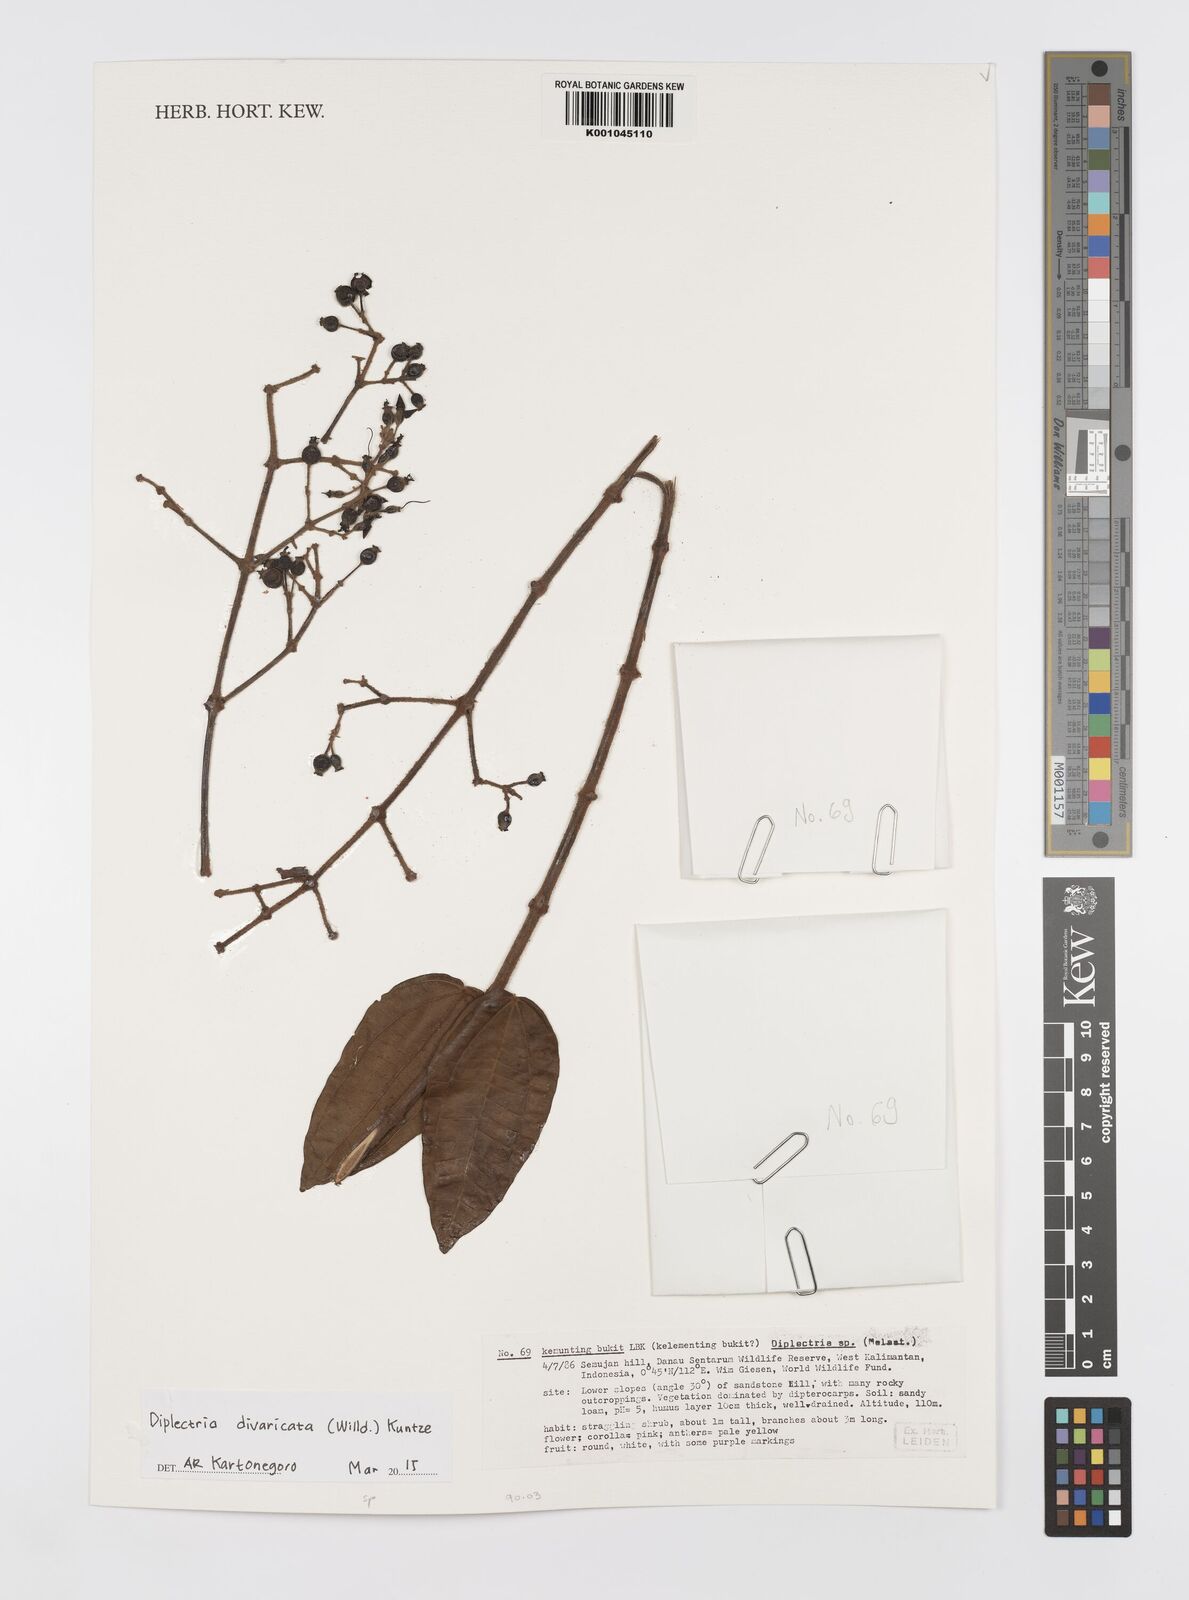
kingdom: Plantae
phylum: Tracheophyta
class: Magnoliopsida
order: Myrtales
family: Melastomataceae
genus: Diplectria
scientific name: Diplectria divaricata
